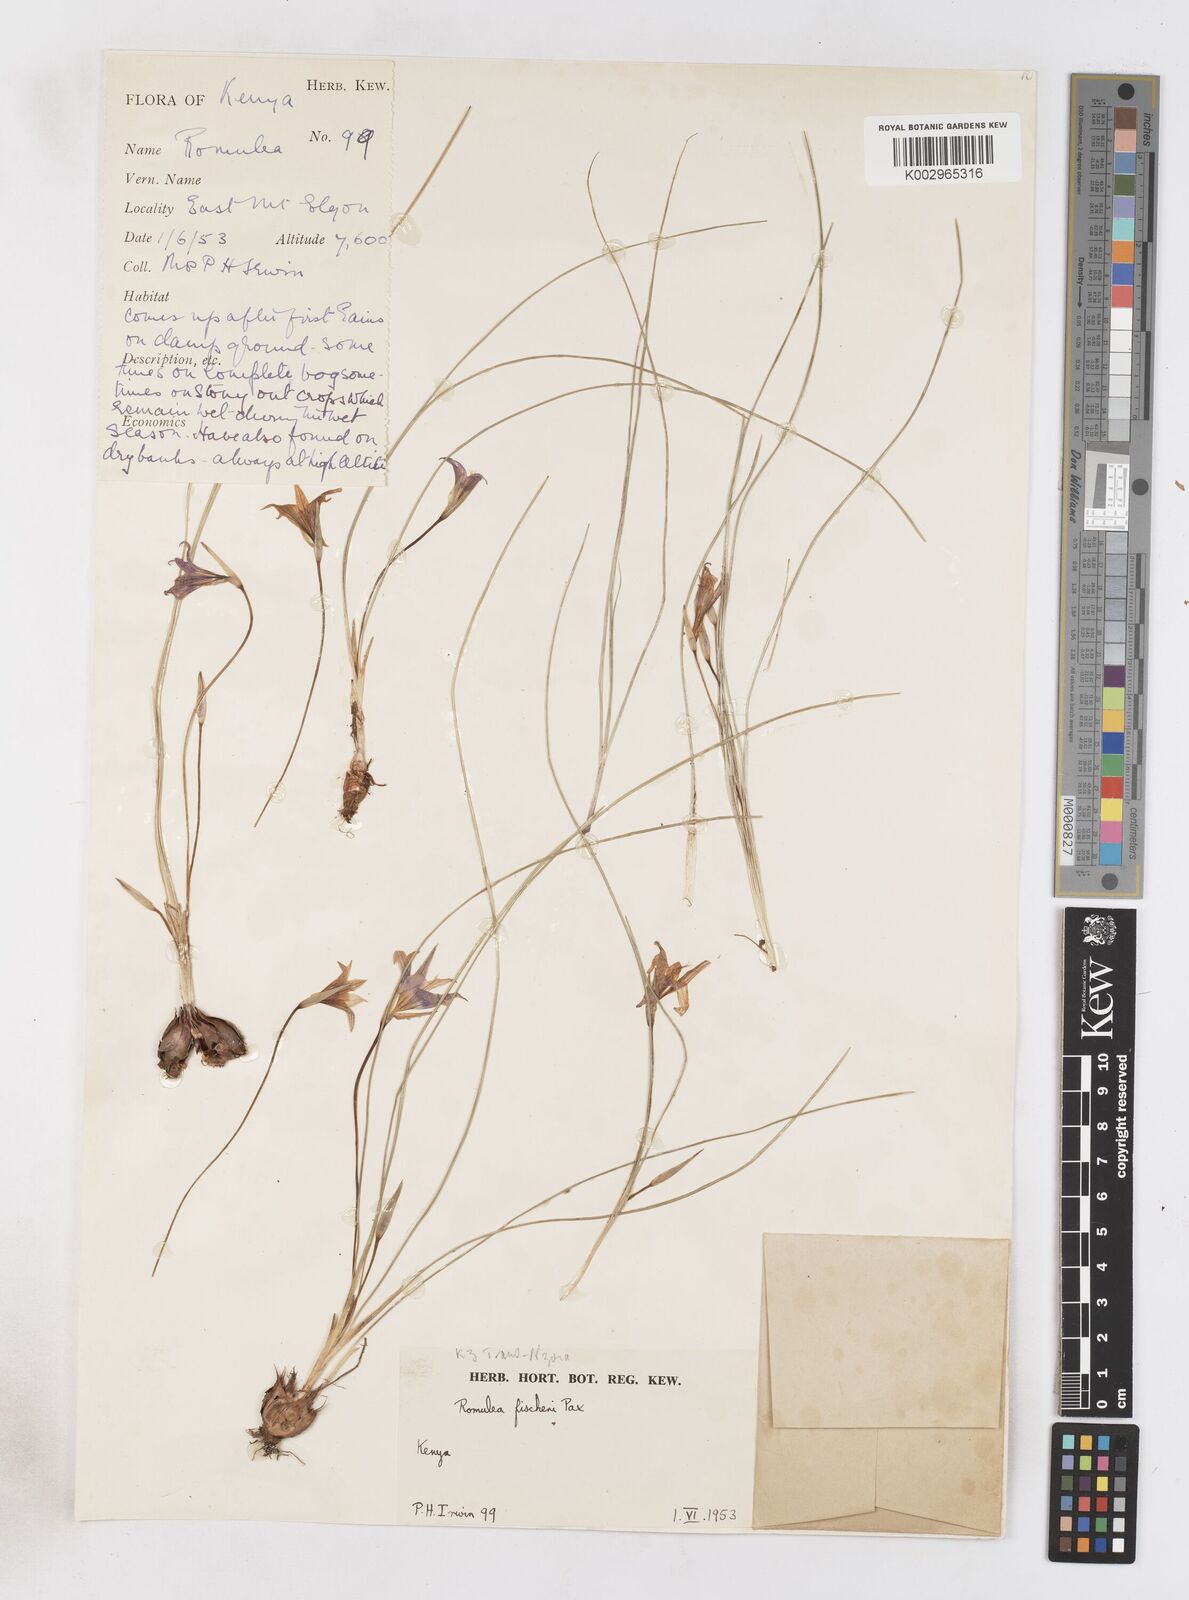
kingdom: Plantae
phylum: Tracheophyta
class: Liliopsida
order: Asparagales
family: Iridaceae
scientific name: Iridaceae
